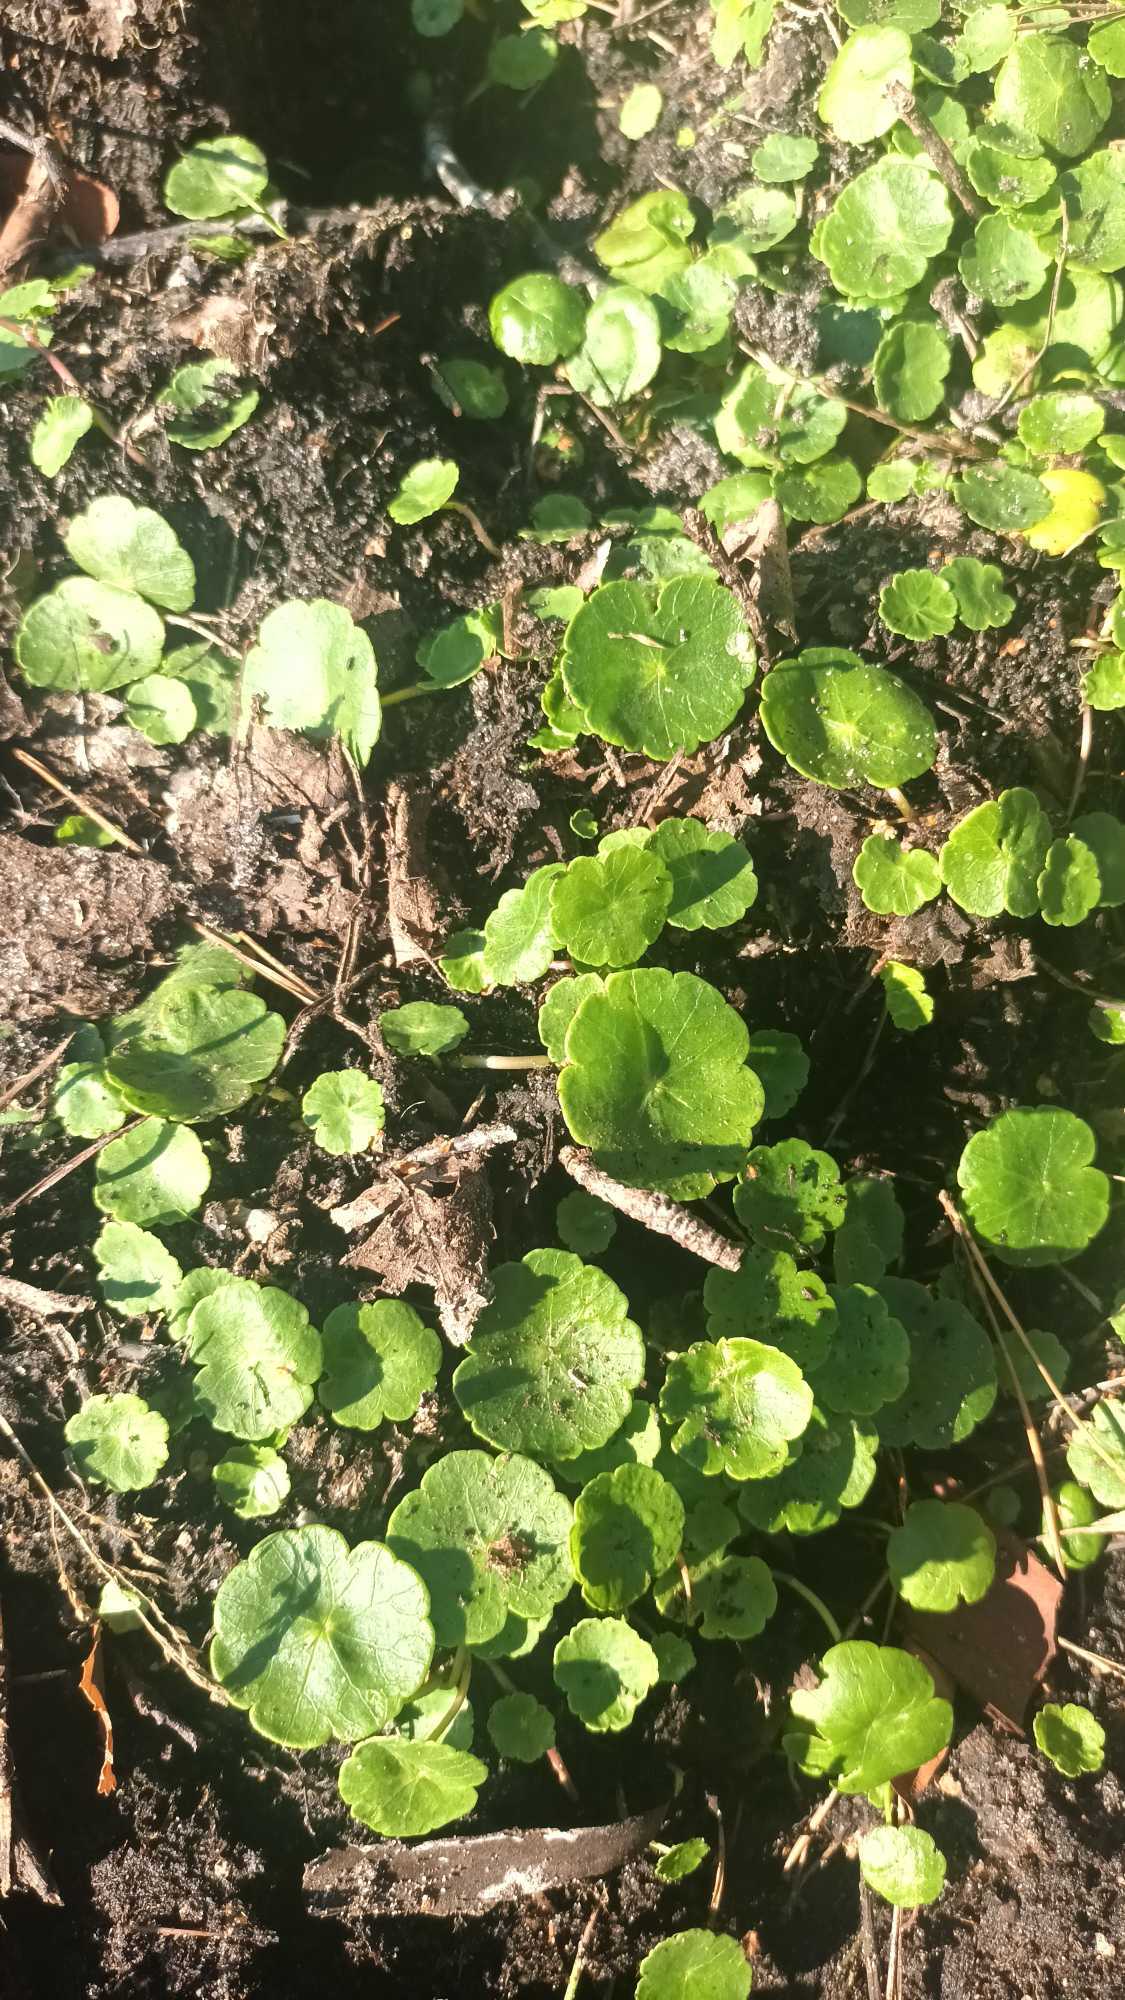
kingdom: Plantae
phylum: Tracheophyta
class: Magnoliopsida
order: Apiales
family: Araliaceae
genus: Hydrocotyle
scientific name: Hydrocotyle vulgaris
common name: Vandnavle
